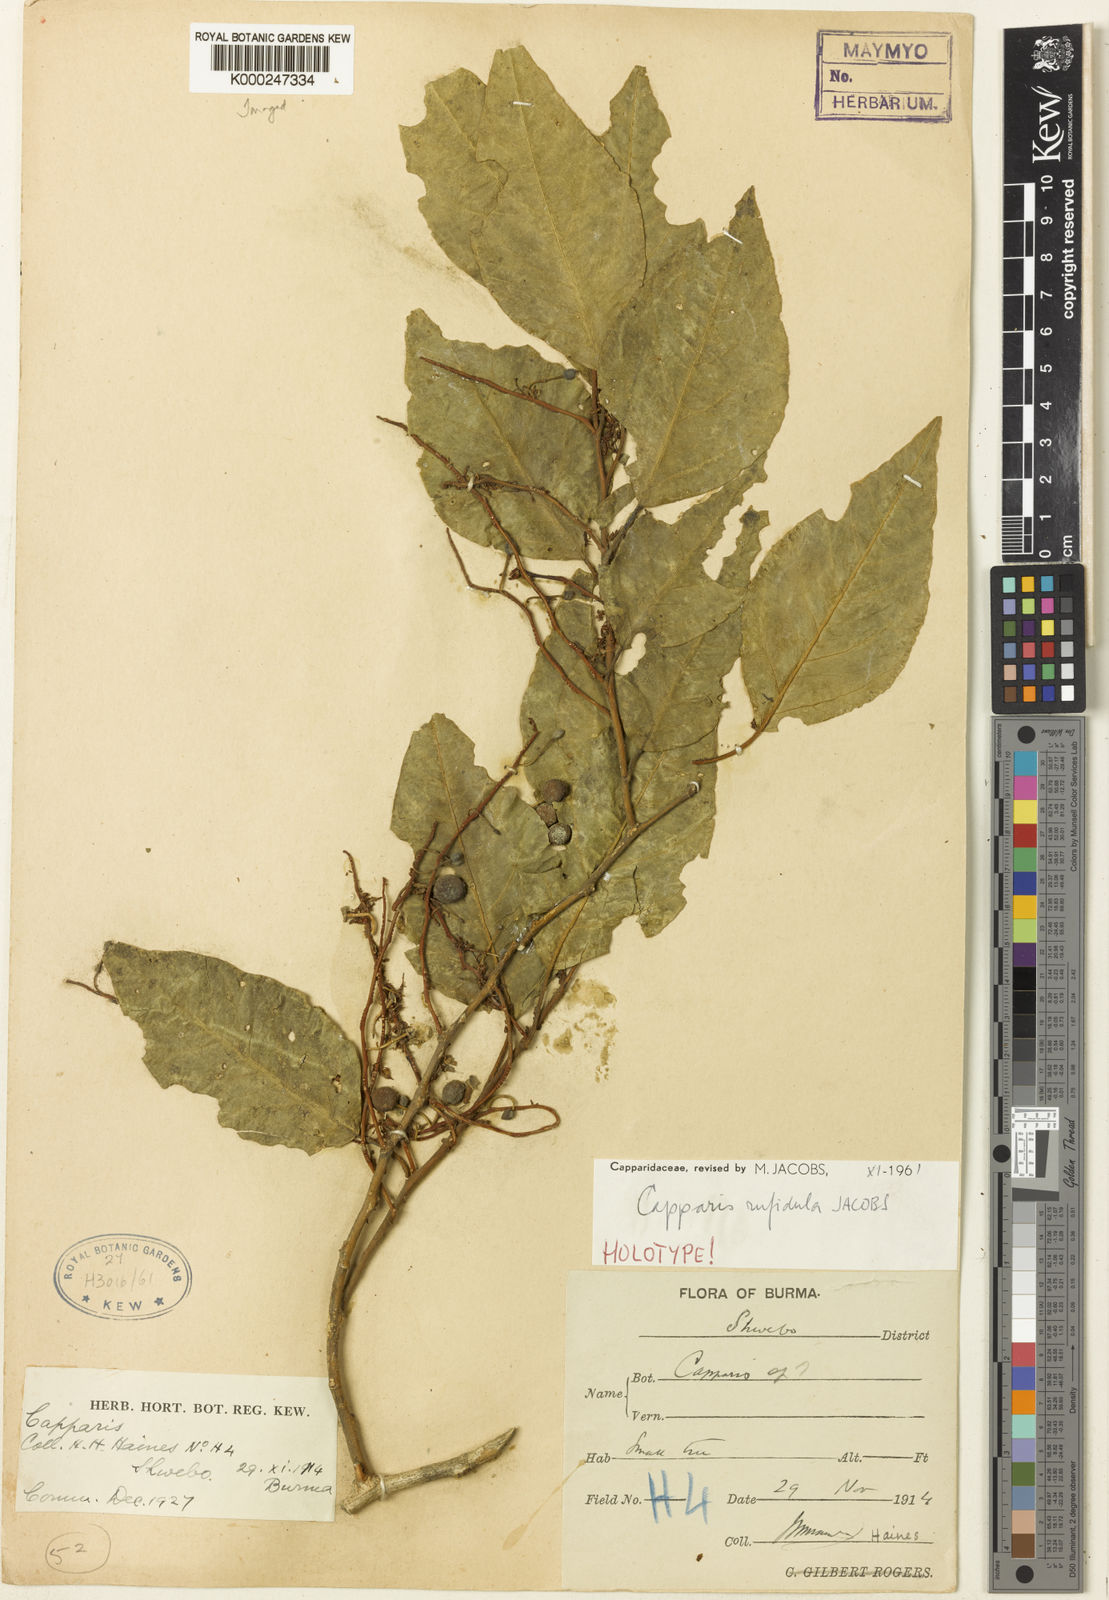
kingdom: Plantae
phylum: Tracheophyta
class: Magnoliopsida
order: Brassicales
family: Capparaceae
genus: Capparis
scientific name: Capparis rufidula
